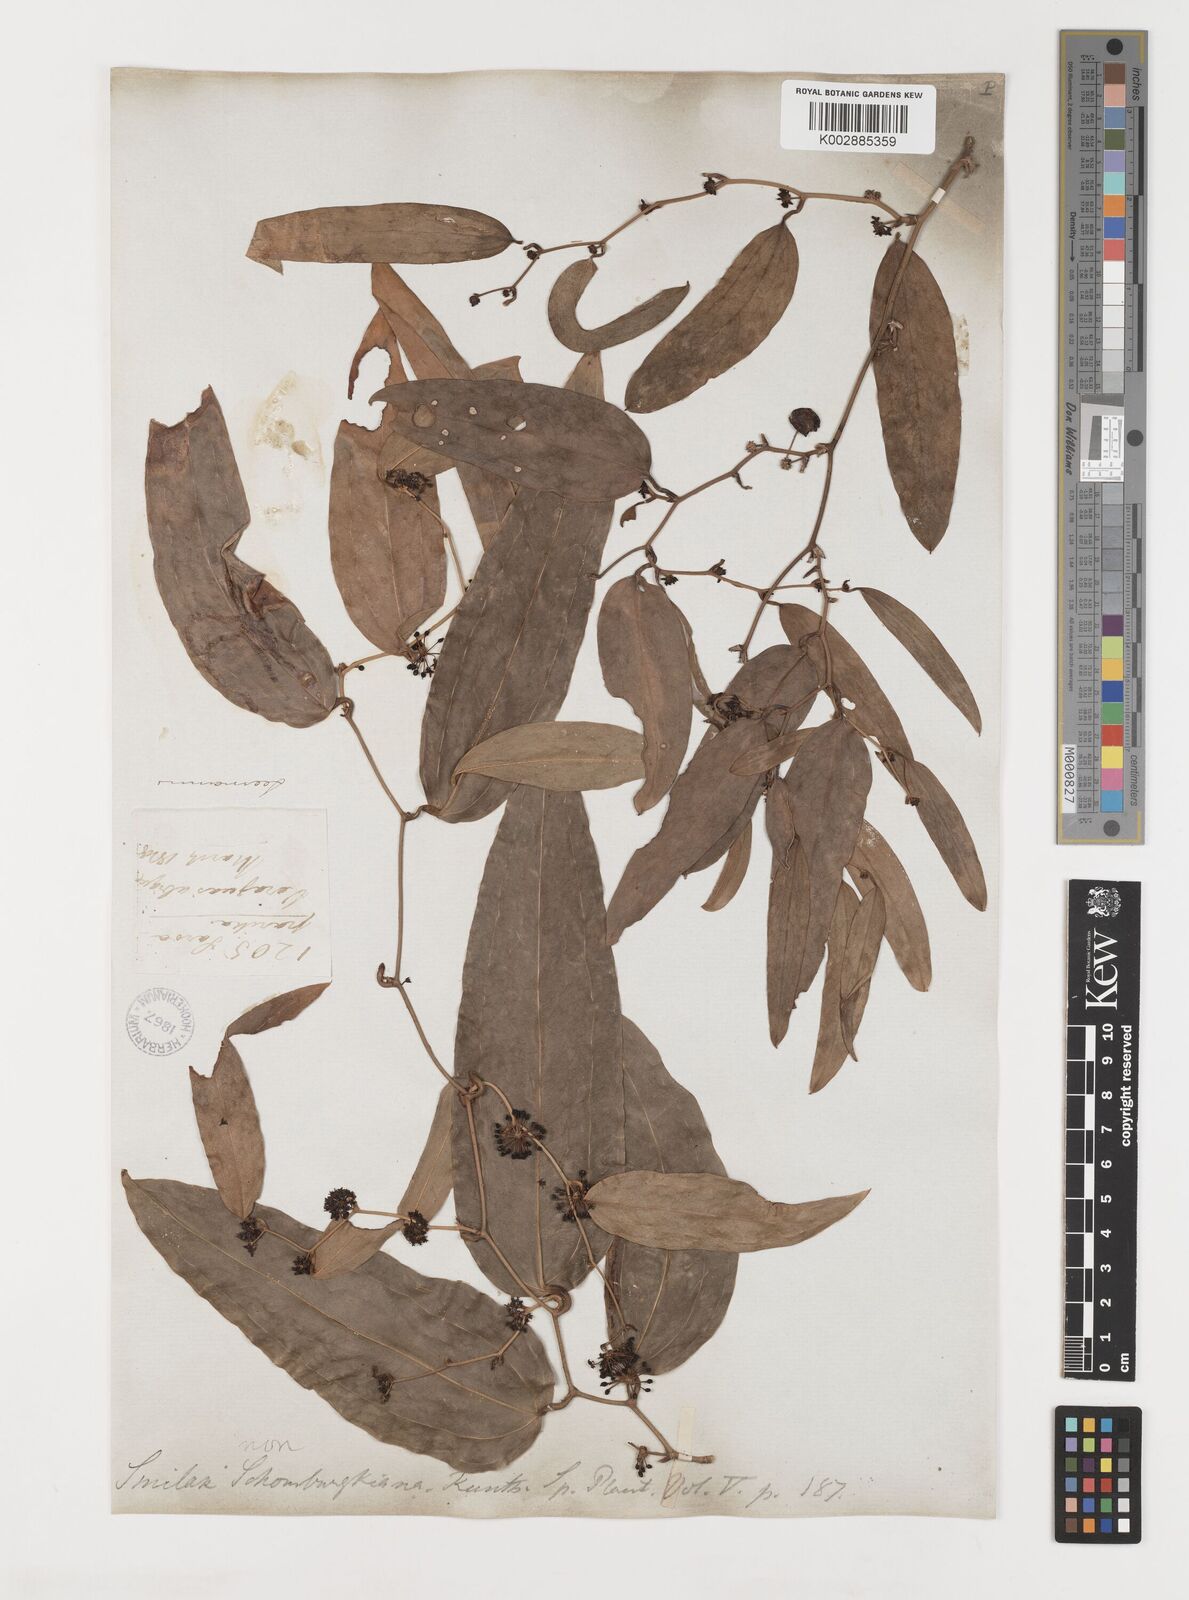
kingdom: Plantae
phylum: Tracheophyta
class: Liliopsida
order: Liliales
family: Smilacaceae
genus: Smilax
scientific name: Smilax
